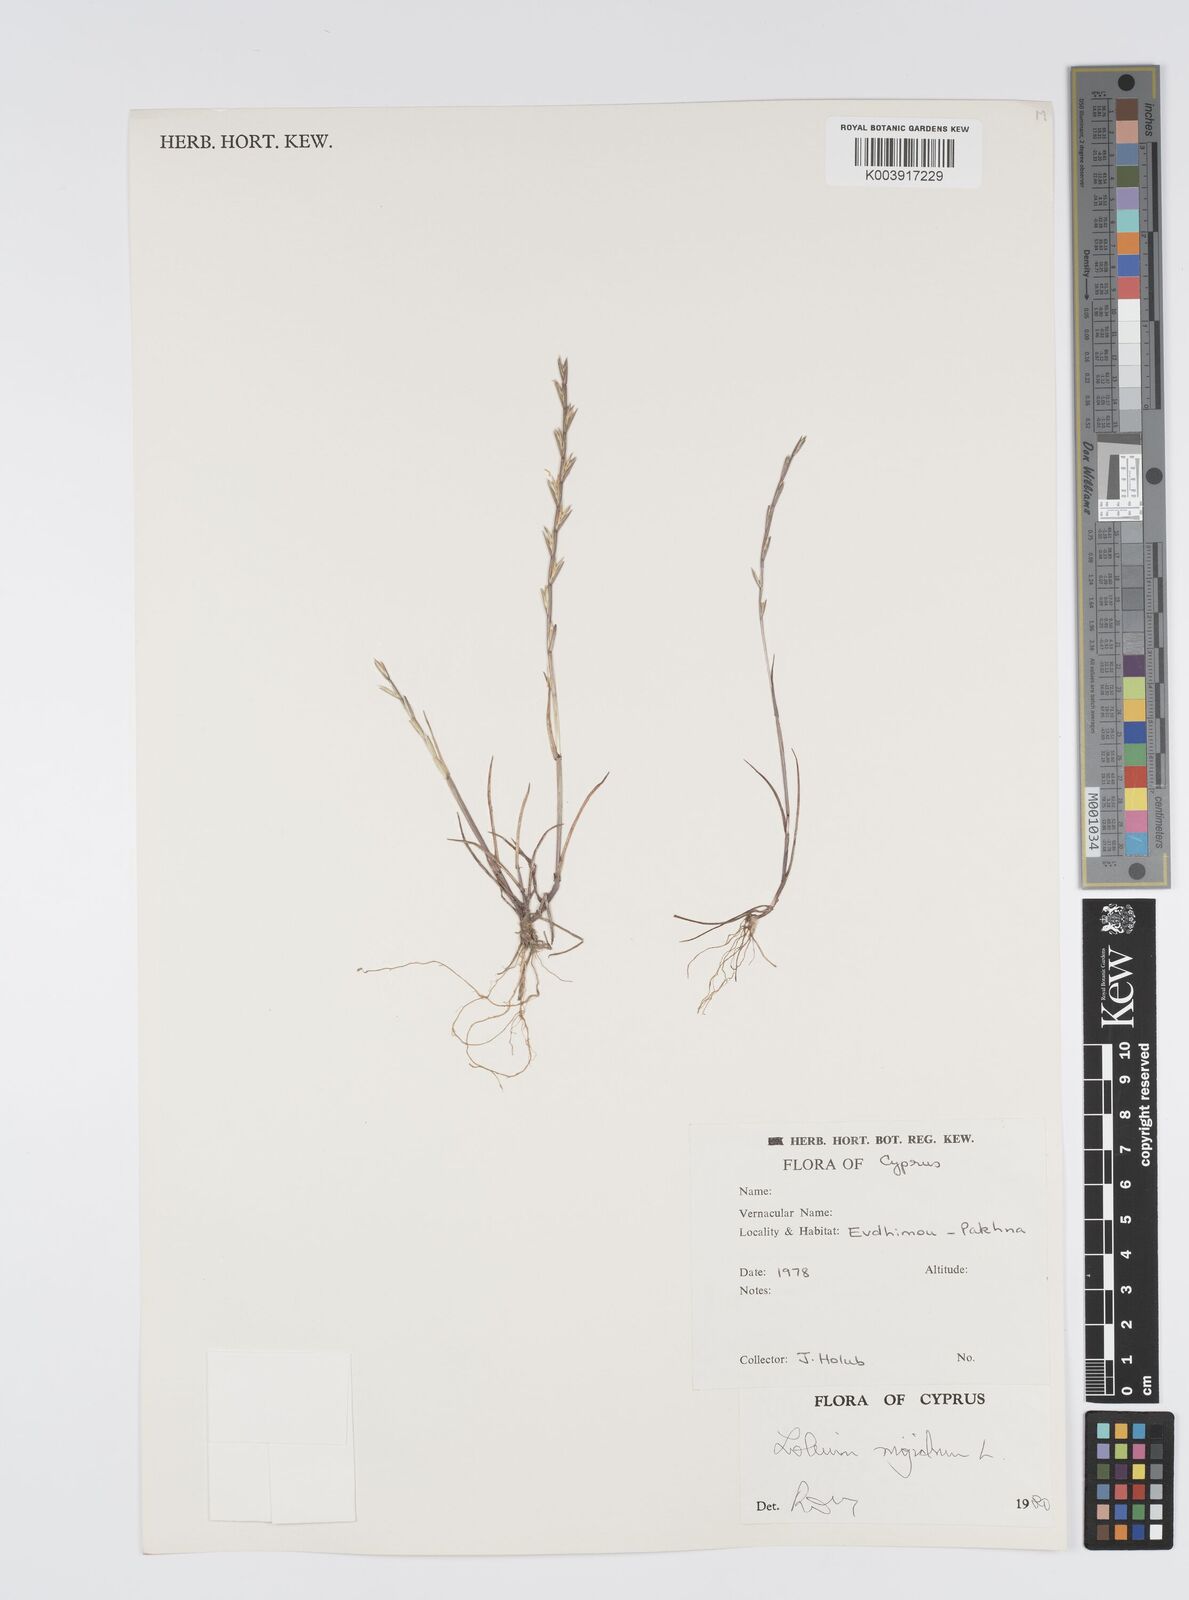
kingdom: Plantae
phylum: Tracheophyta
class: Liliopsida
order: Poales
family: Poaceae
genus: Lolium
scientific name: Lolium rigidum
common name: Wimmera ryegrass
